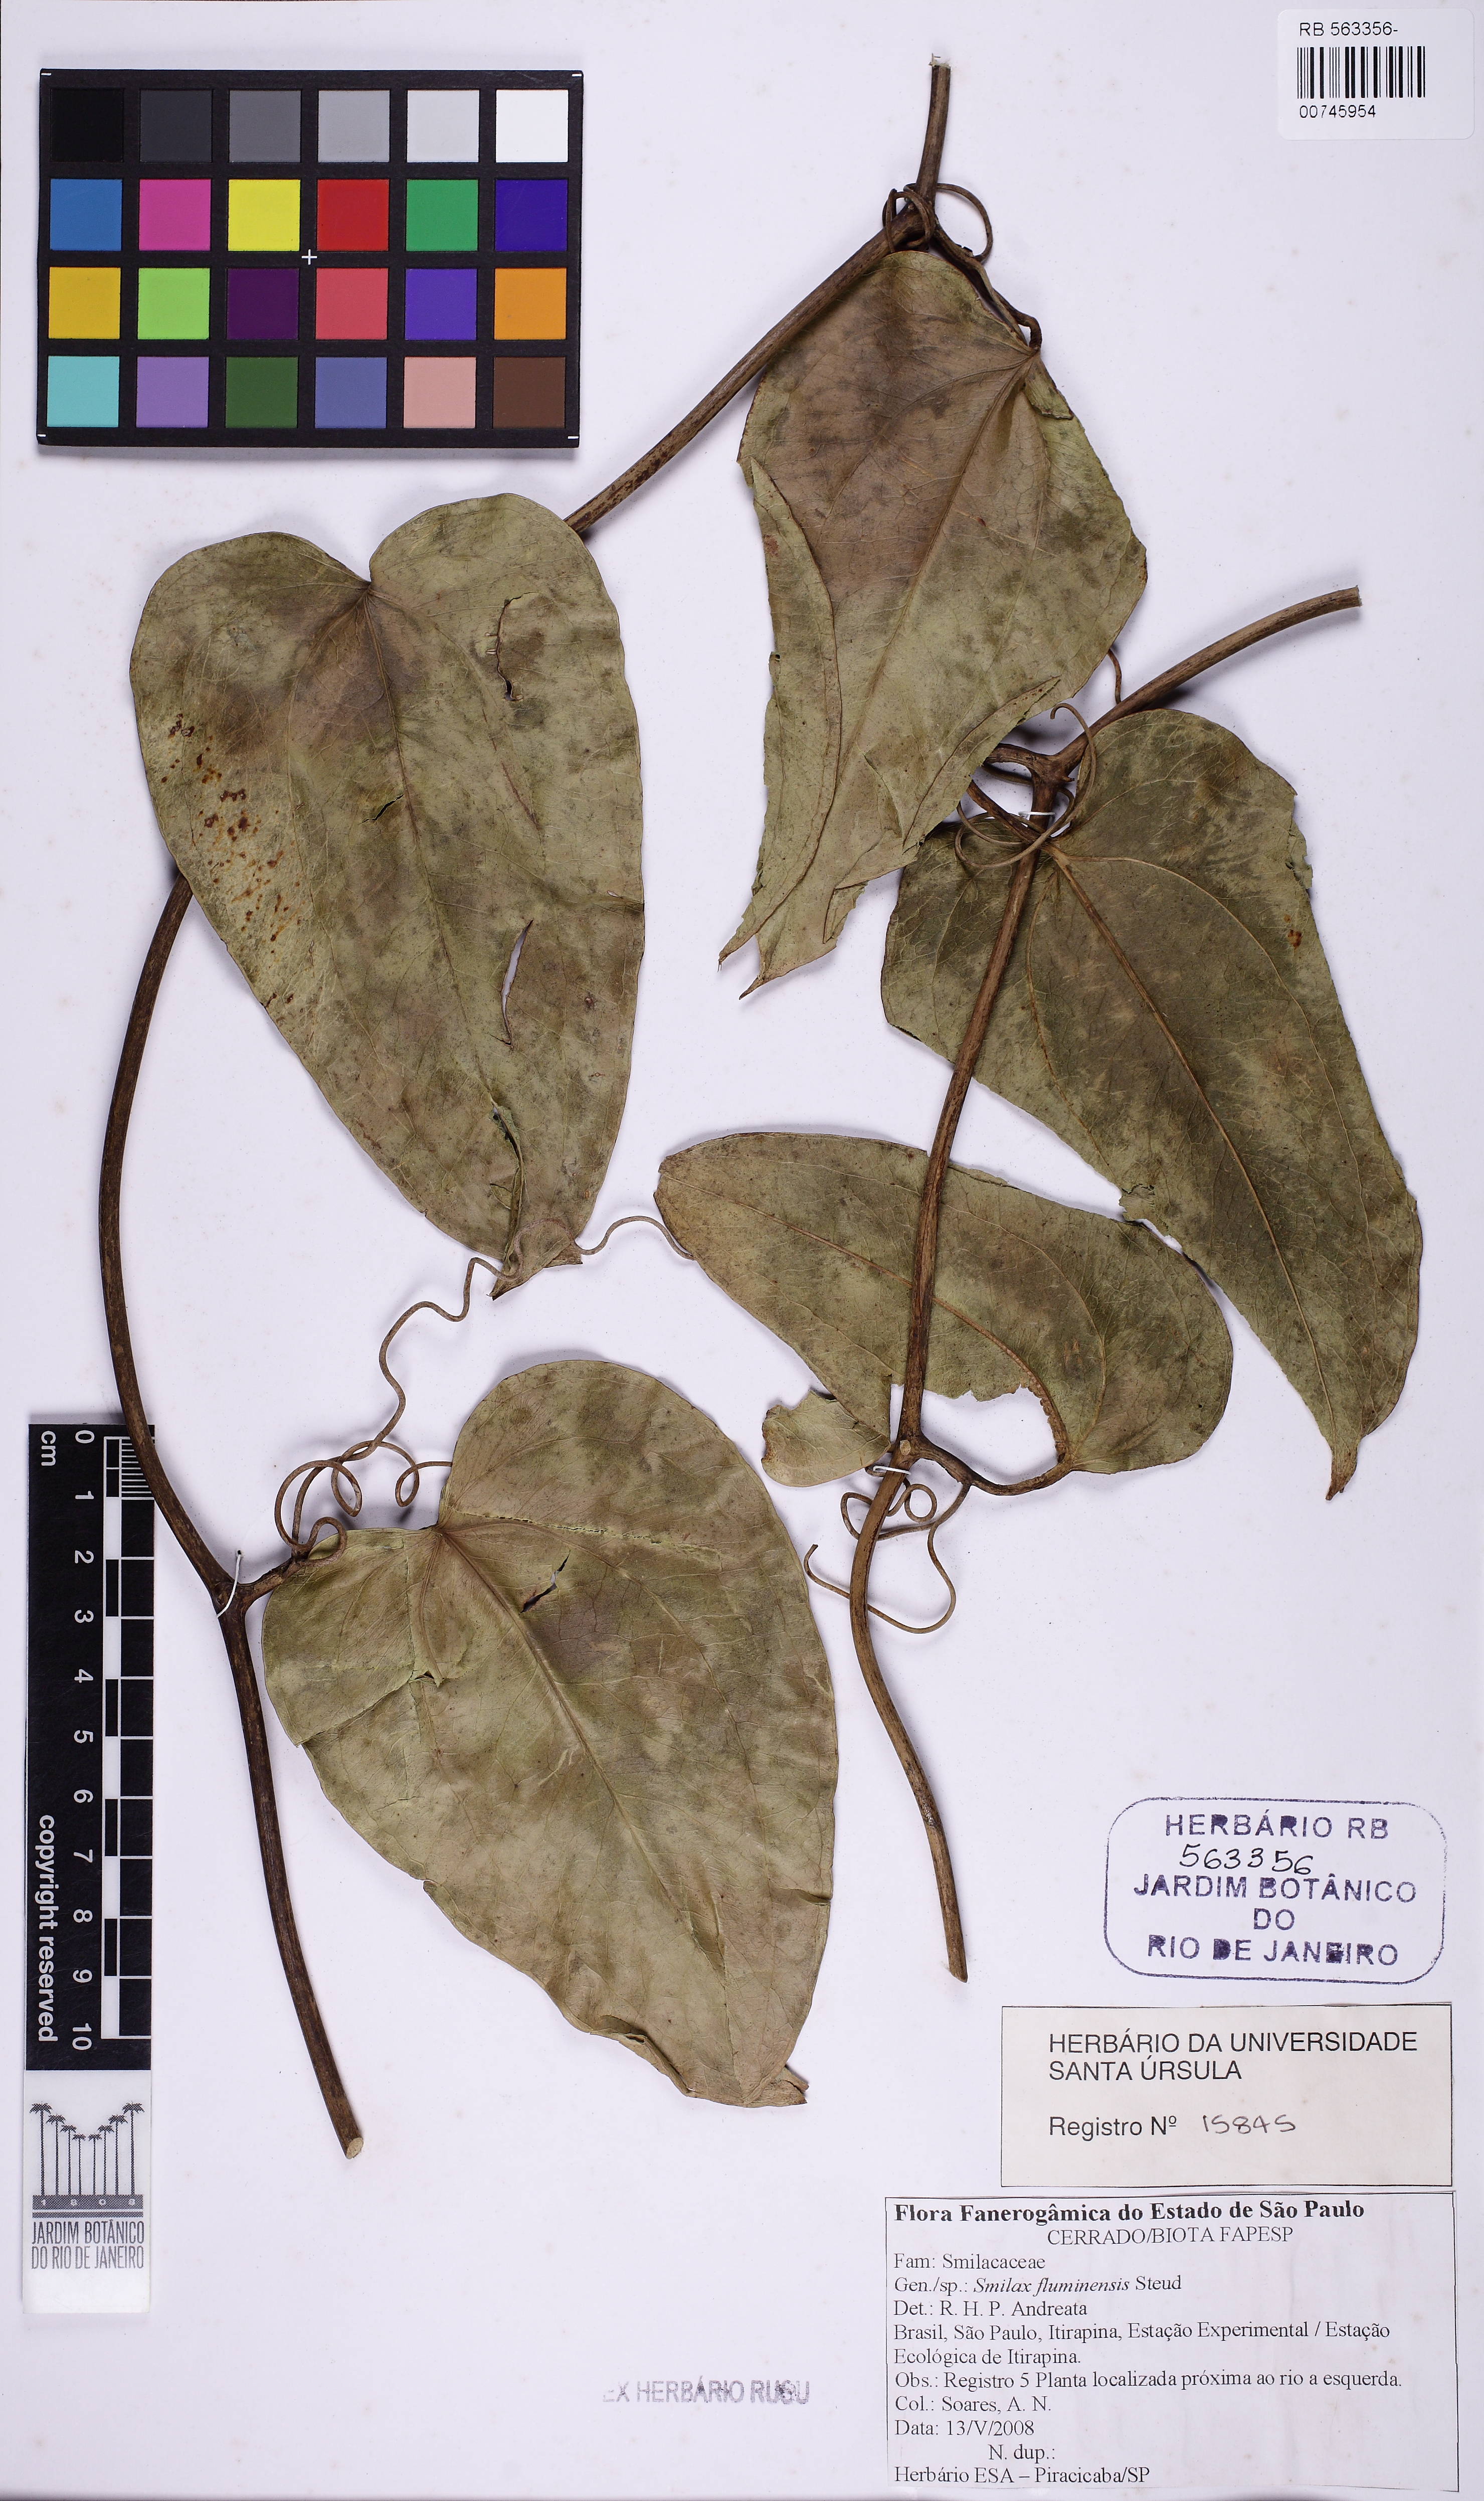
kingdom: Plantae
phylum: Tracheophyta
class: Liliopsida
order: Liliales
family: Smilacaceae
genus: Smilax
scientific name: Smilax fluminensis
